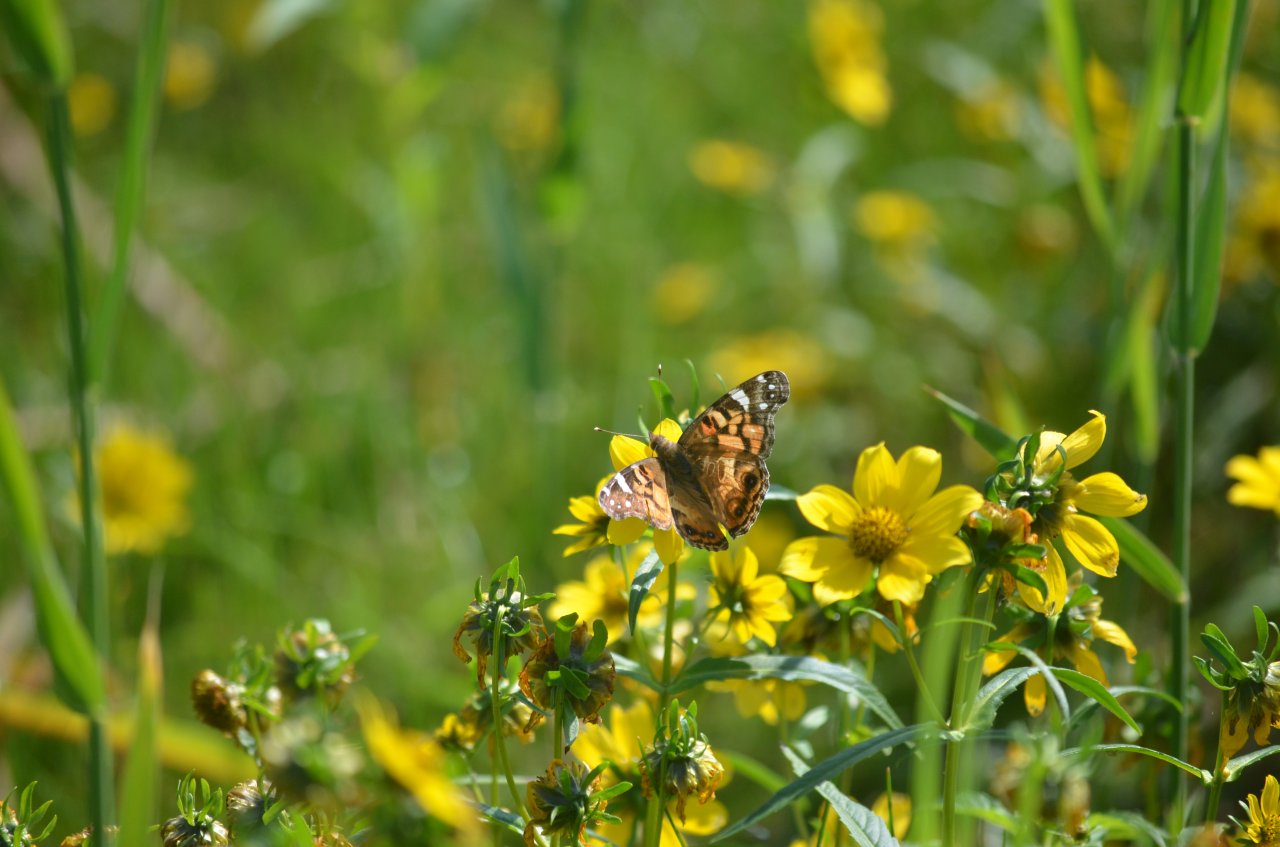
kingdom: Animalia
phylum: Arthropoda
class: Insecta
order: Lepidoptera
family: Nymphalidae
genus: Vanessa
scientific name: Vanessa virginiensis
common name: American Lady
